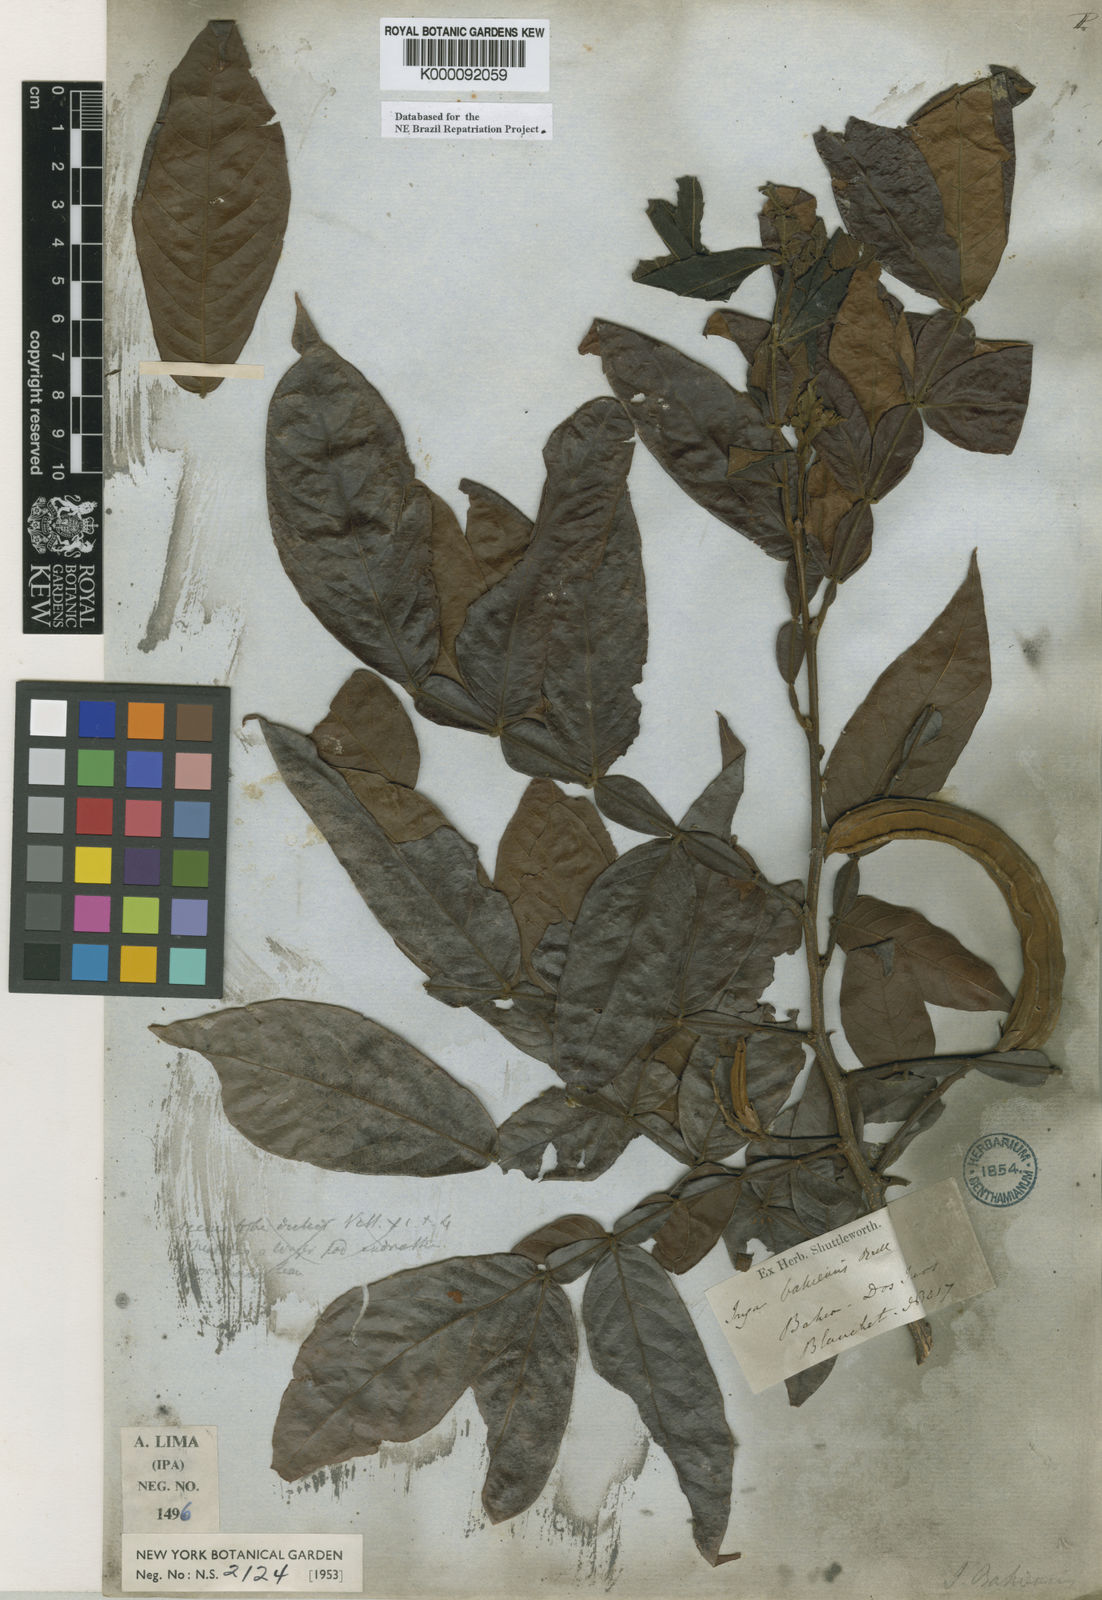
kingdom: Plantae
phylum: Tracheophyta
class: Magnoliopsida
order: Fabales
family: Fabaceae
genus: Inga
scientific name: Inga ingoides
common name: Spanish ash
